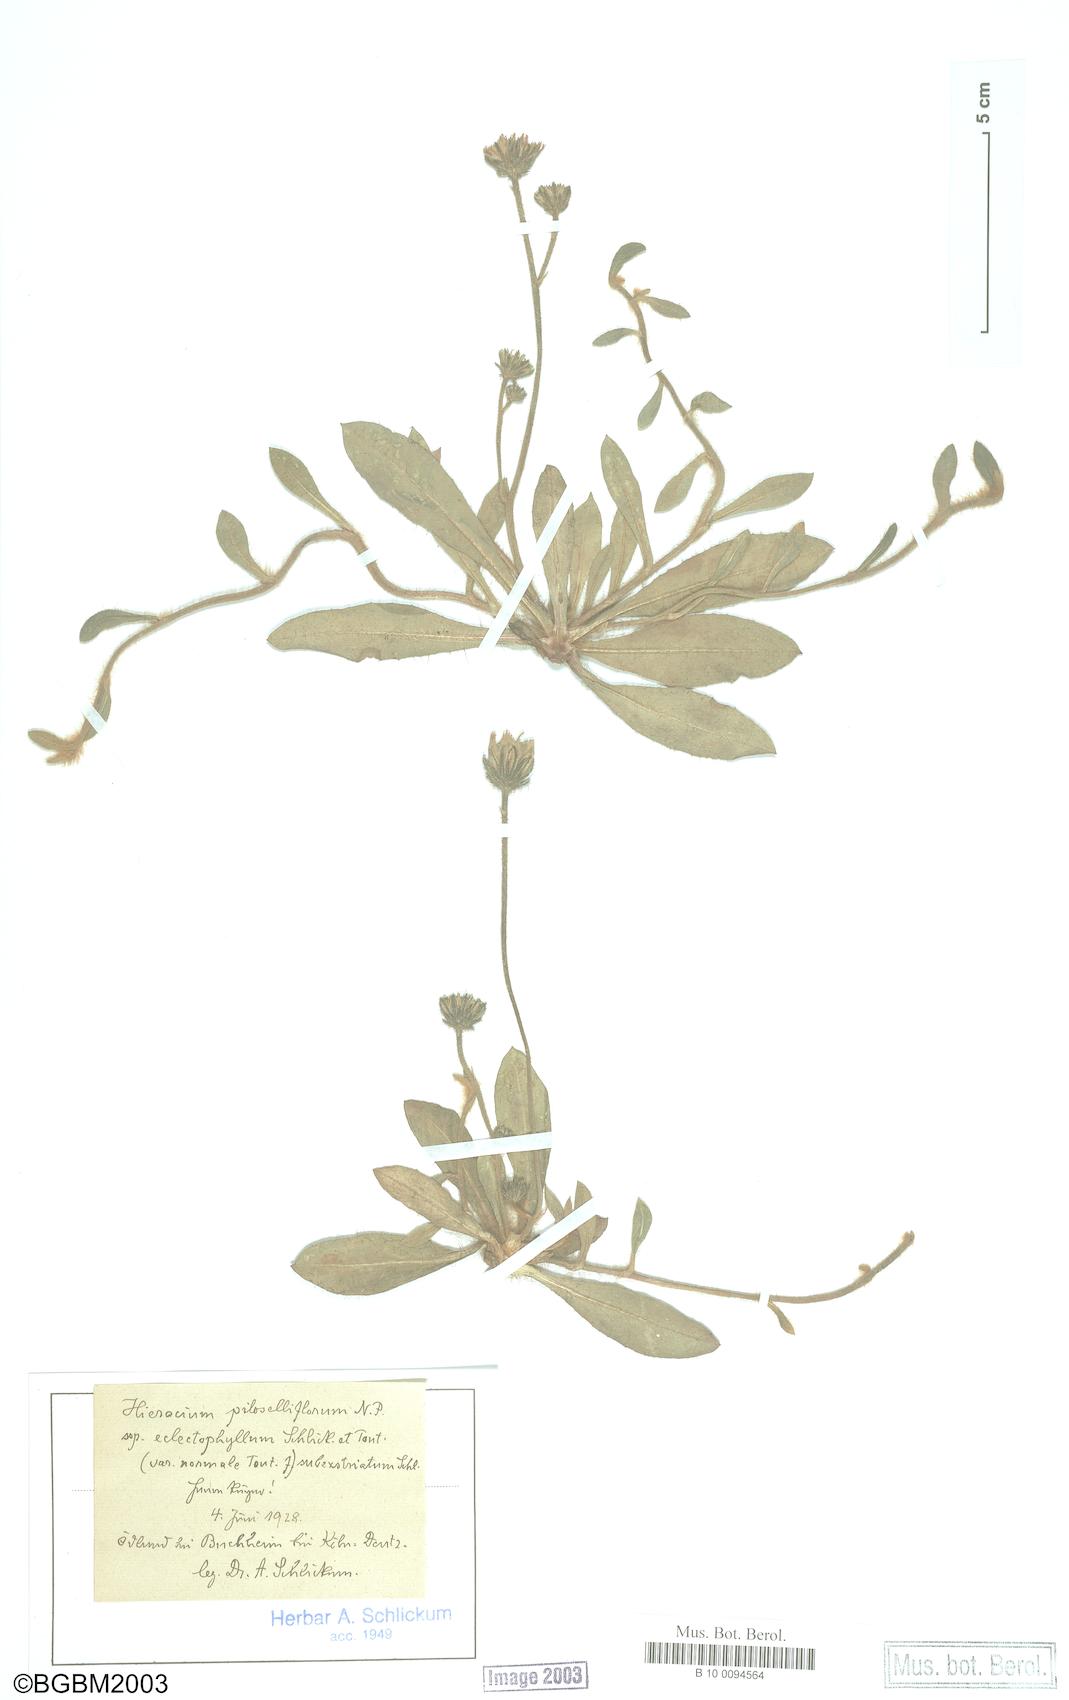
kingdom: Plantae
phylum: Tracheophyta
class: Magnoliopsida
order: Asterales
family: Asteraceae
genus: Pilosella
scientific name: Pilosella piloselliflora
